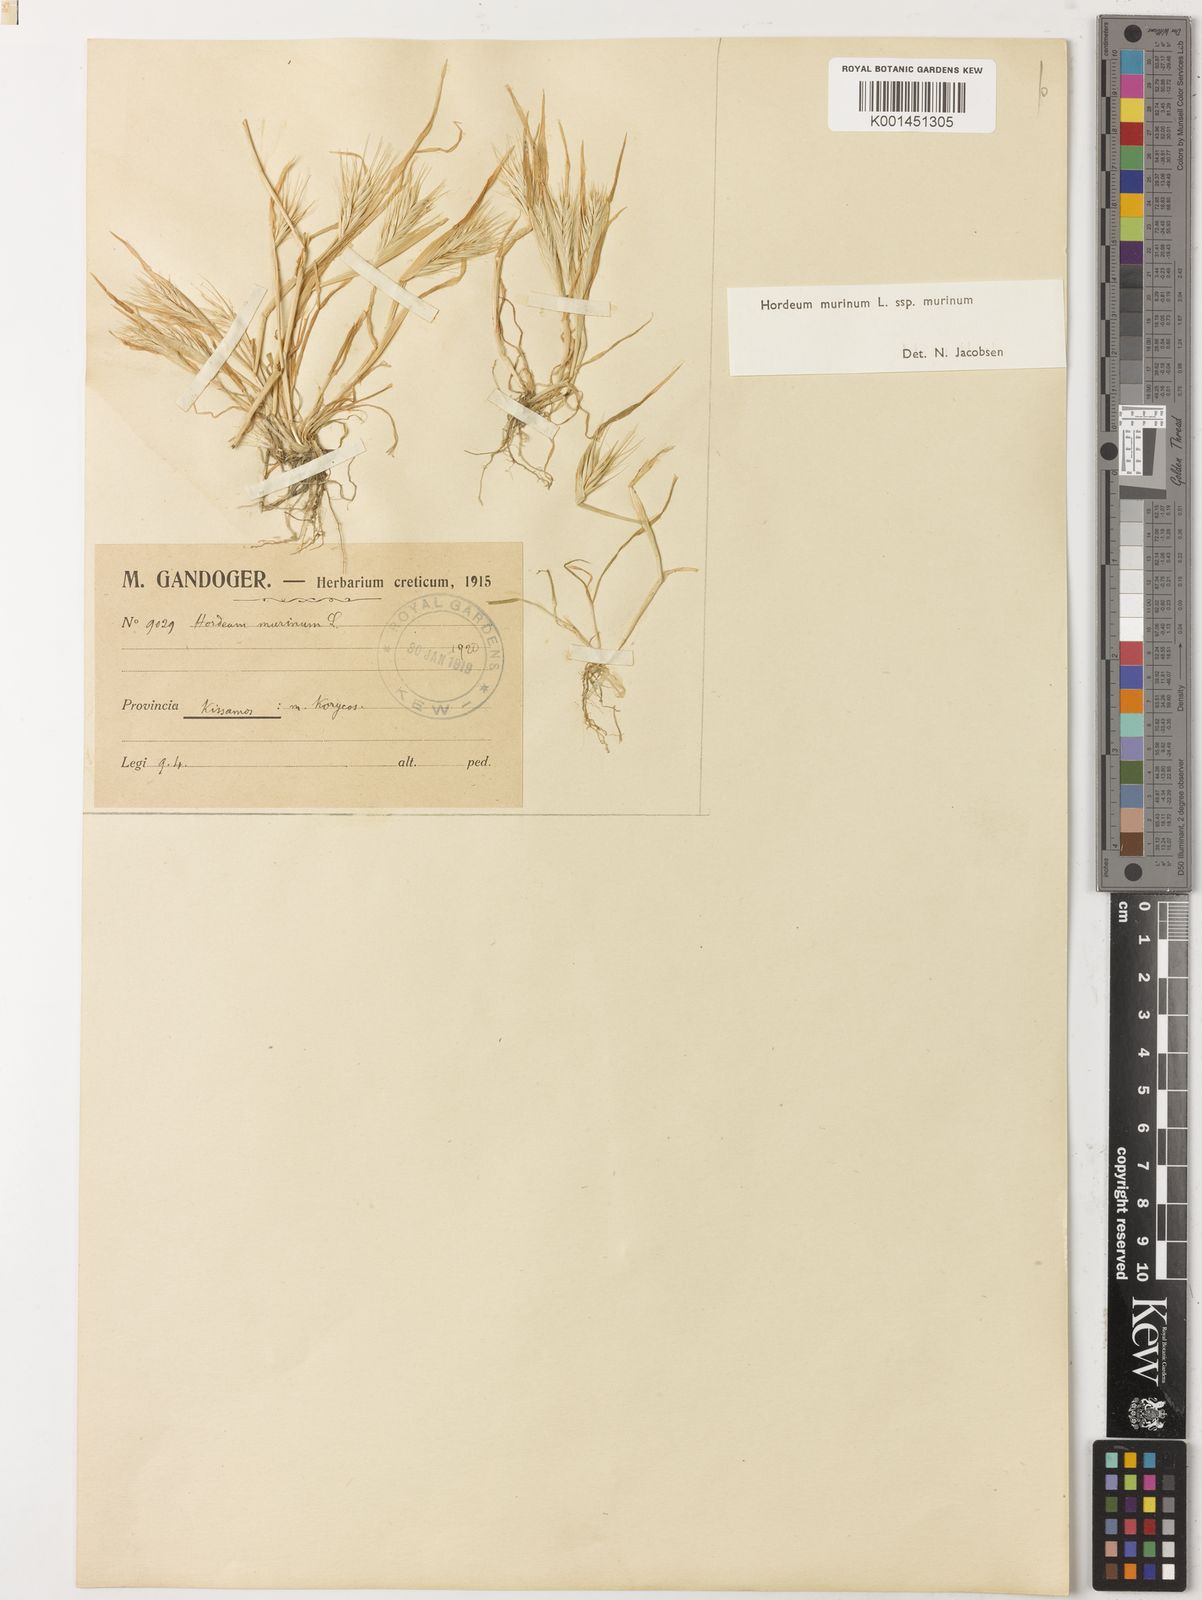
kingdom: Plantae
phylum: Tracheophyta
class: Liliopsida
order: Poales
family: Poaceae
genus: Hordeum
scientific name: Hordeum murinum
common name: Wall barley
